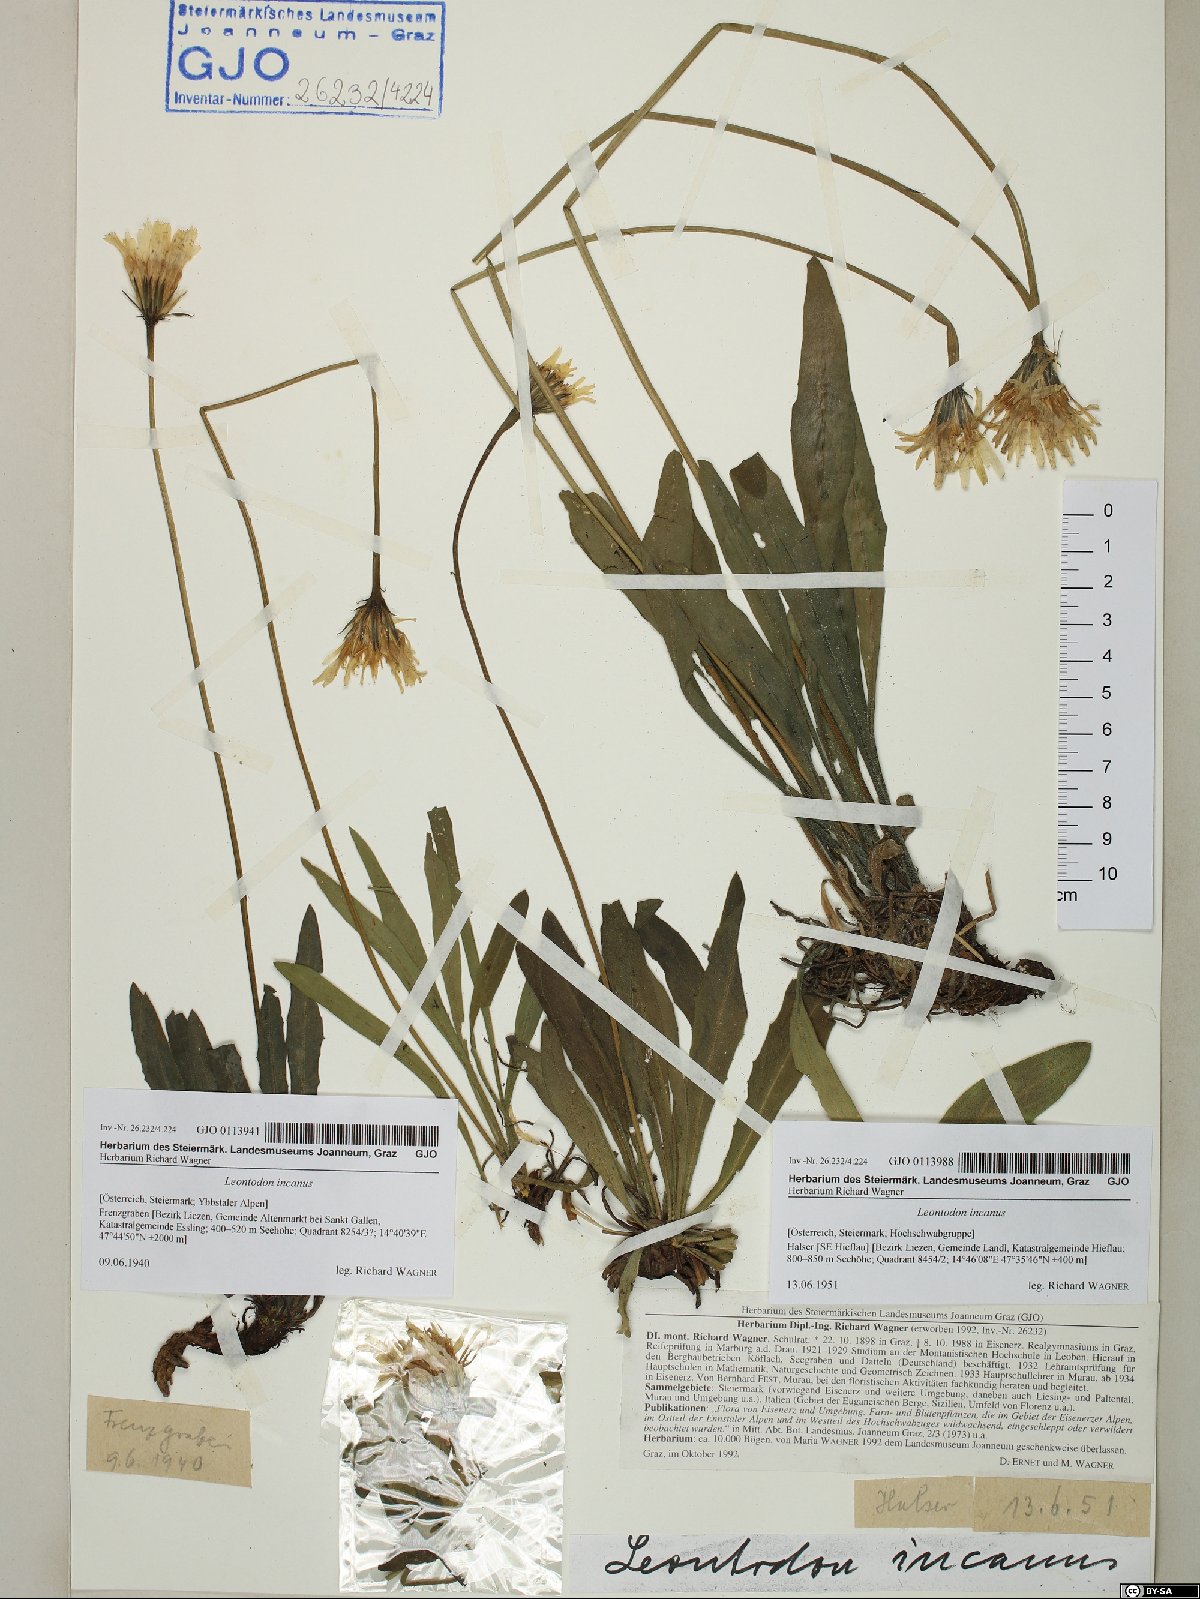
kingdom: Plantae
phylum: Tracheophyta
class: Magnoliopsida
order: Asterales
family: Asteraceae
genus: Leontodon
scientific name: Leontodon incanus
